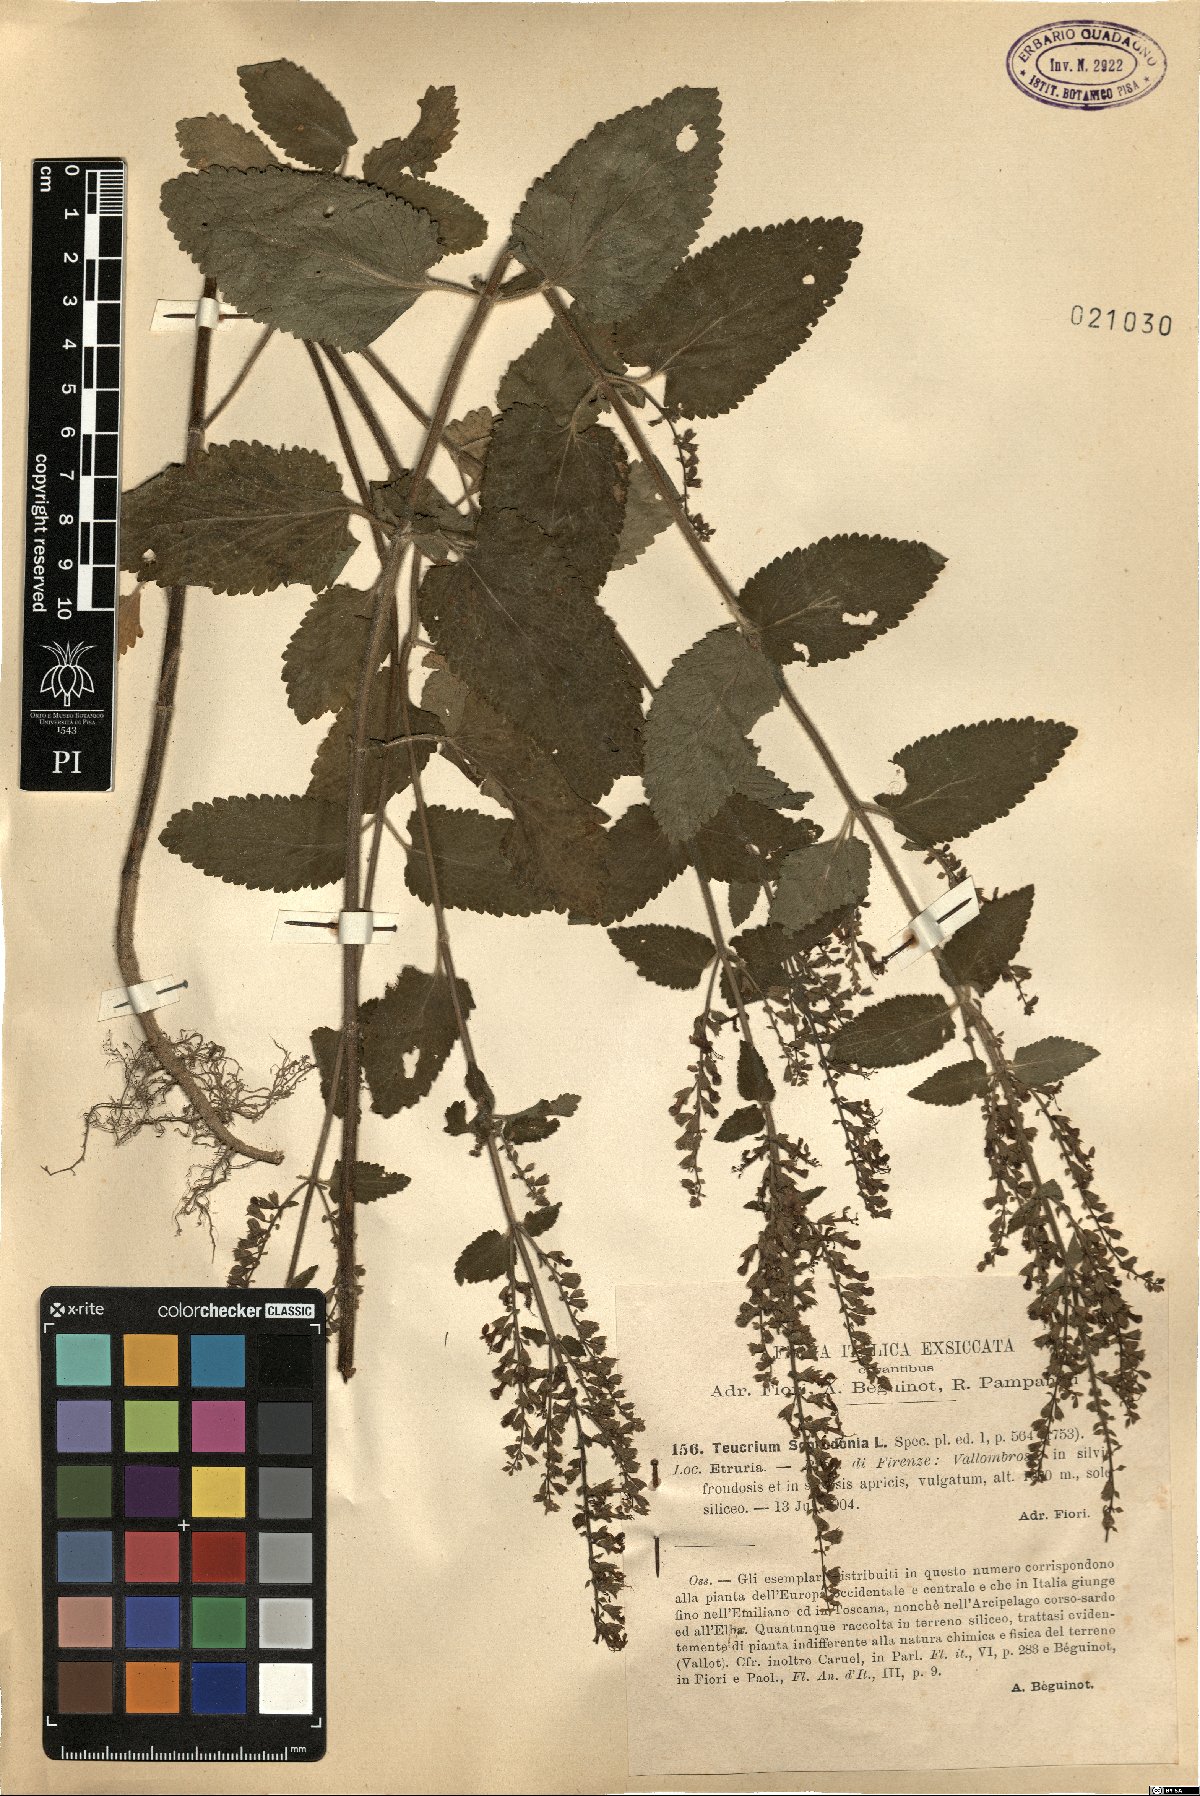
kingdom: Plantae
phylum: Tracheophyta
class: Magnoliopsida
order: Lamiales
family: Lamiaceae
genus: Teucrium
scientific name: Teucrium scorodonia
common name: Woodland germander
